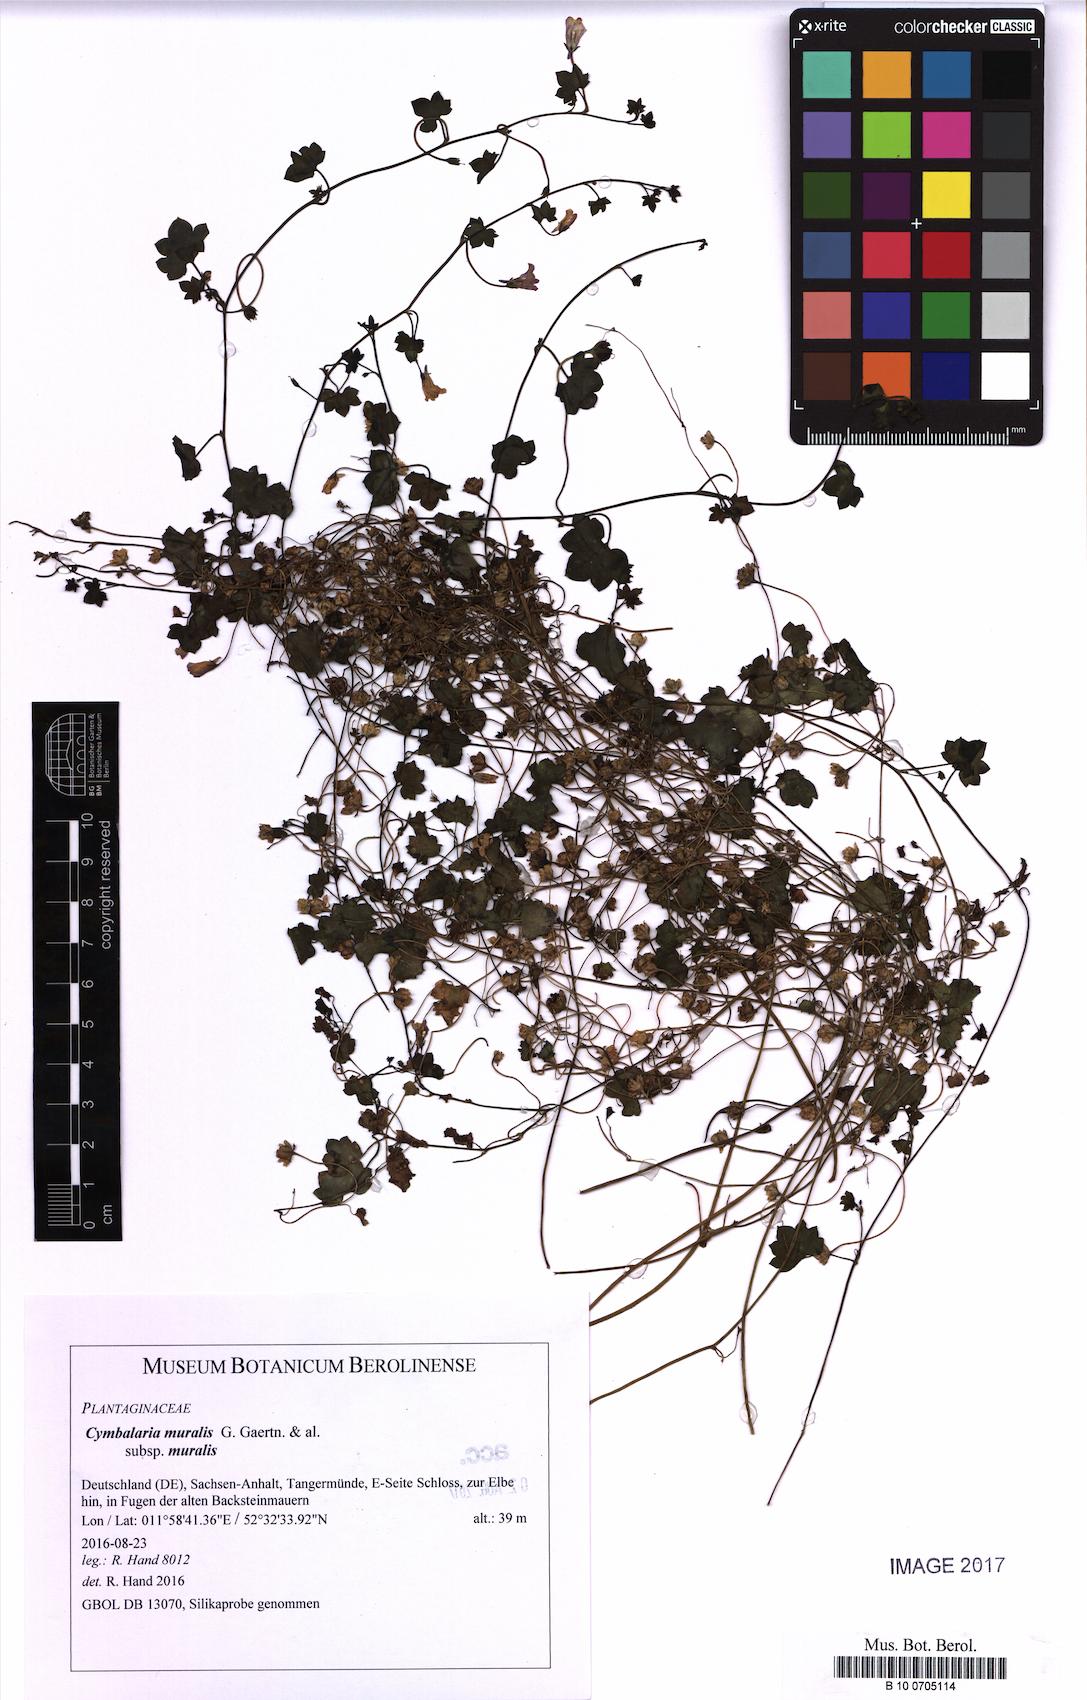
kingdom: Plantae
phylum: Tracheophyta
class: Magnoliopsida
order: Lamiales
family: Plantaginaceae
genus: Cymbalaria
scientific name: Cymbalaria muralis
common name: Ivy-leaved toadflax
